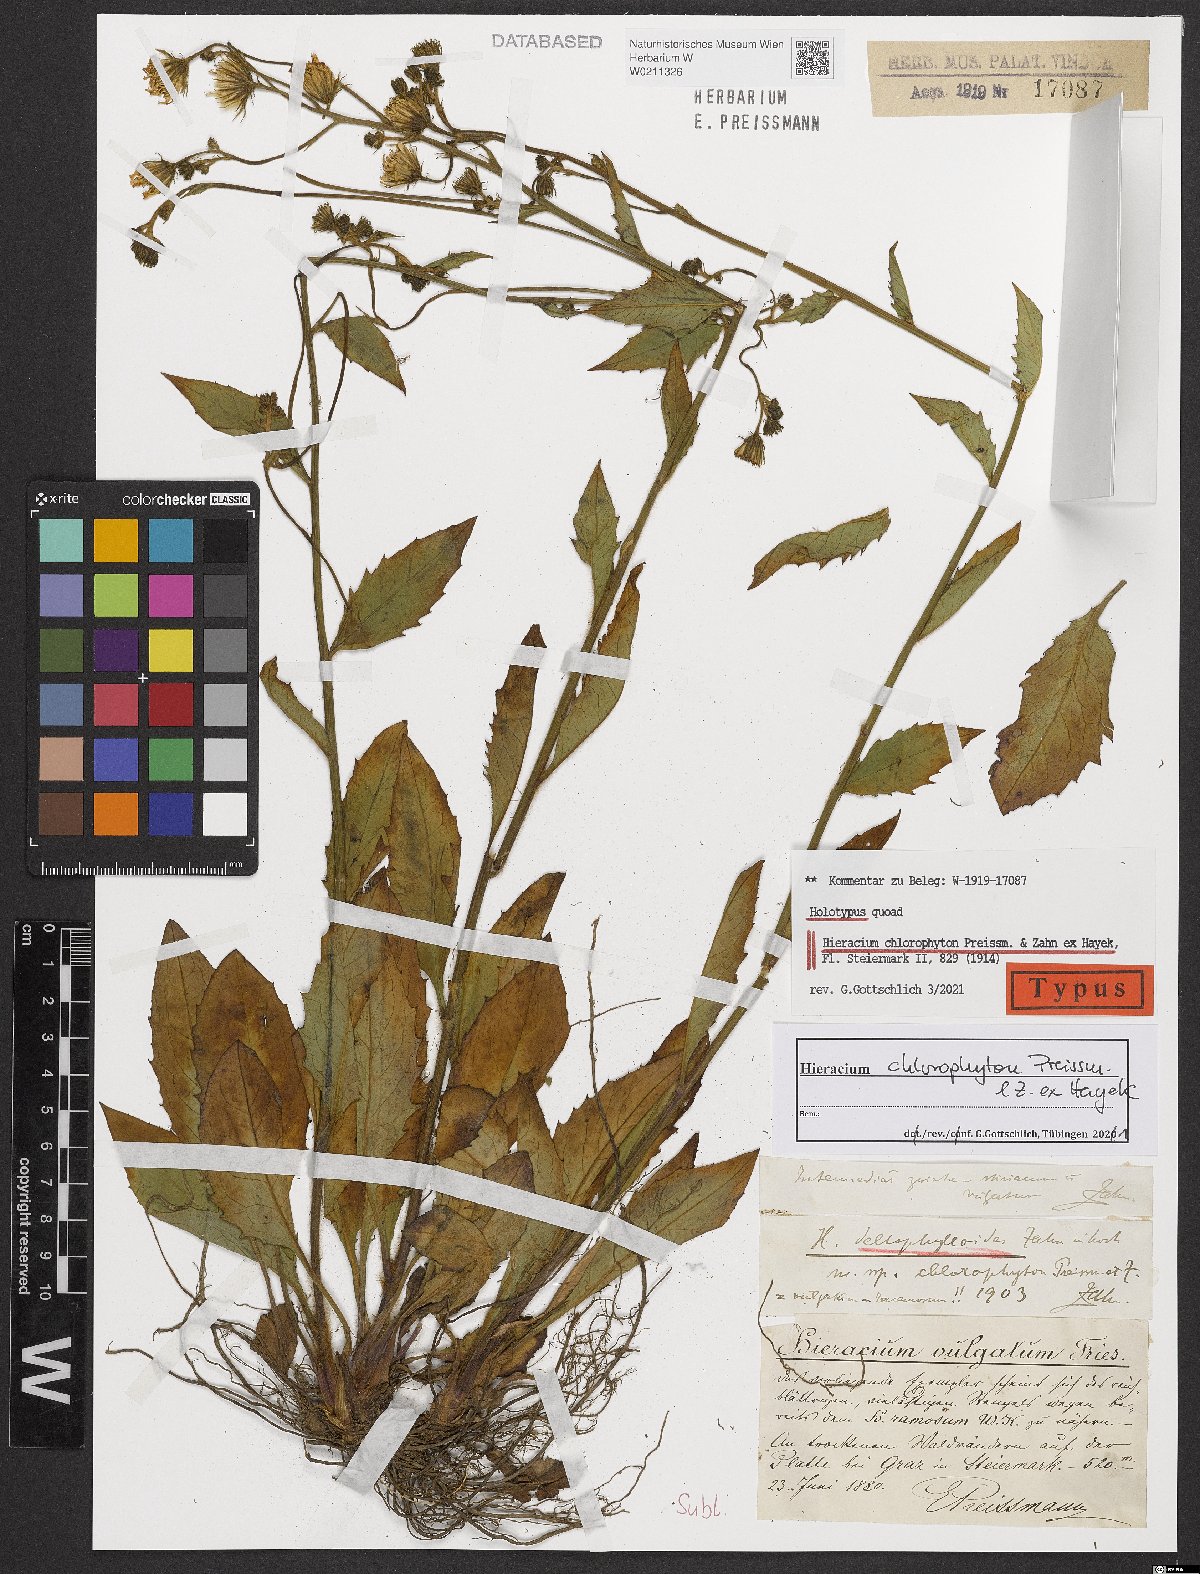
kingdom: Plantae
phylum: Tracheophyta
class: Magnoliopsida
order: Asterales
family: Asteraceae
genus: Hieracium
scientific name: Hieracium chlorophyton
